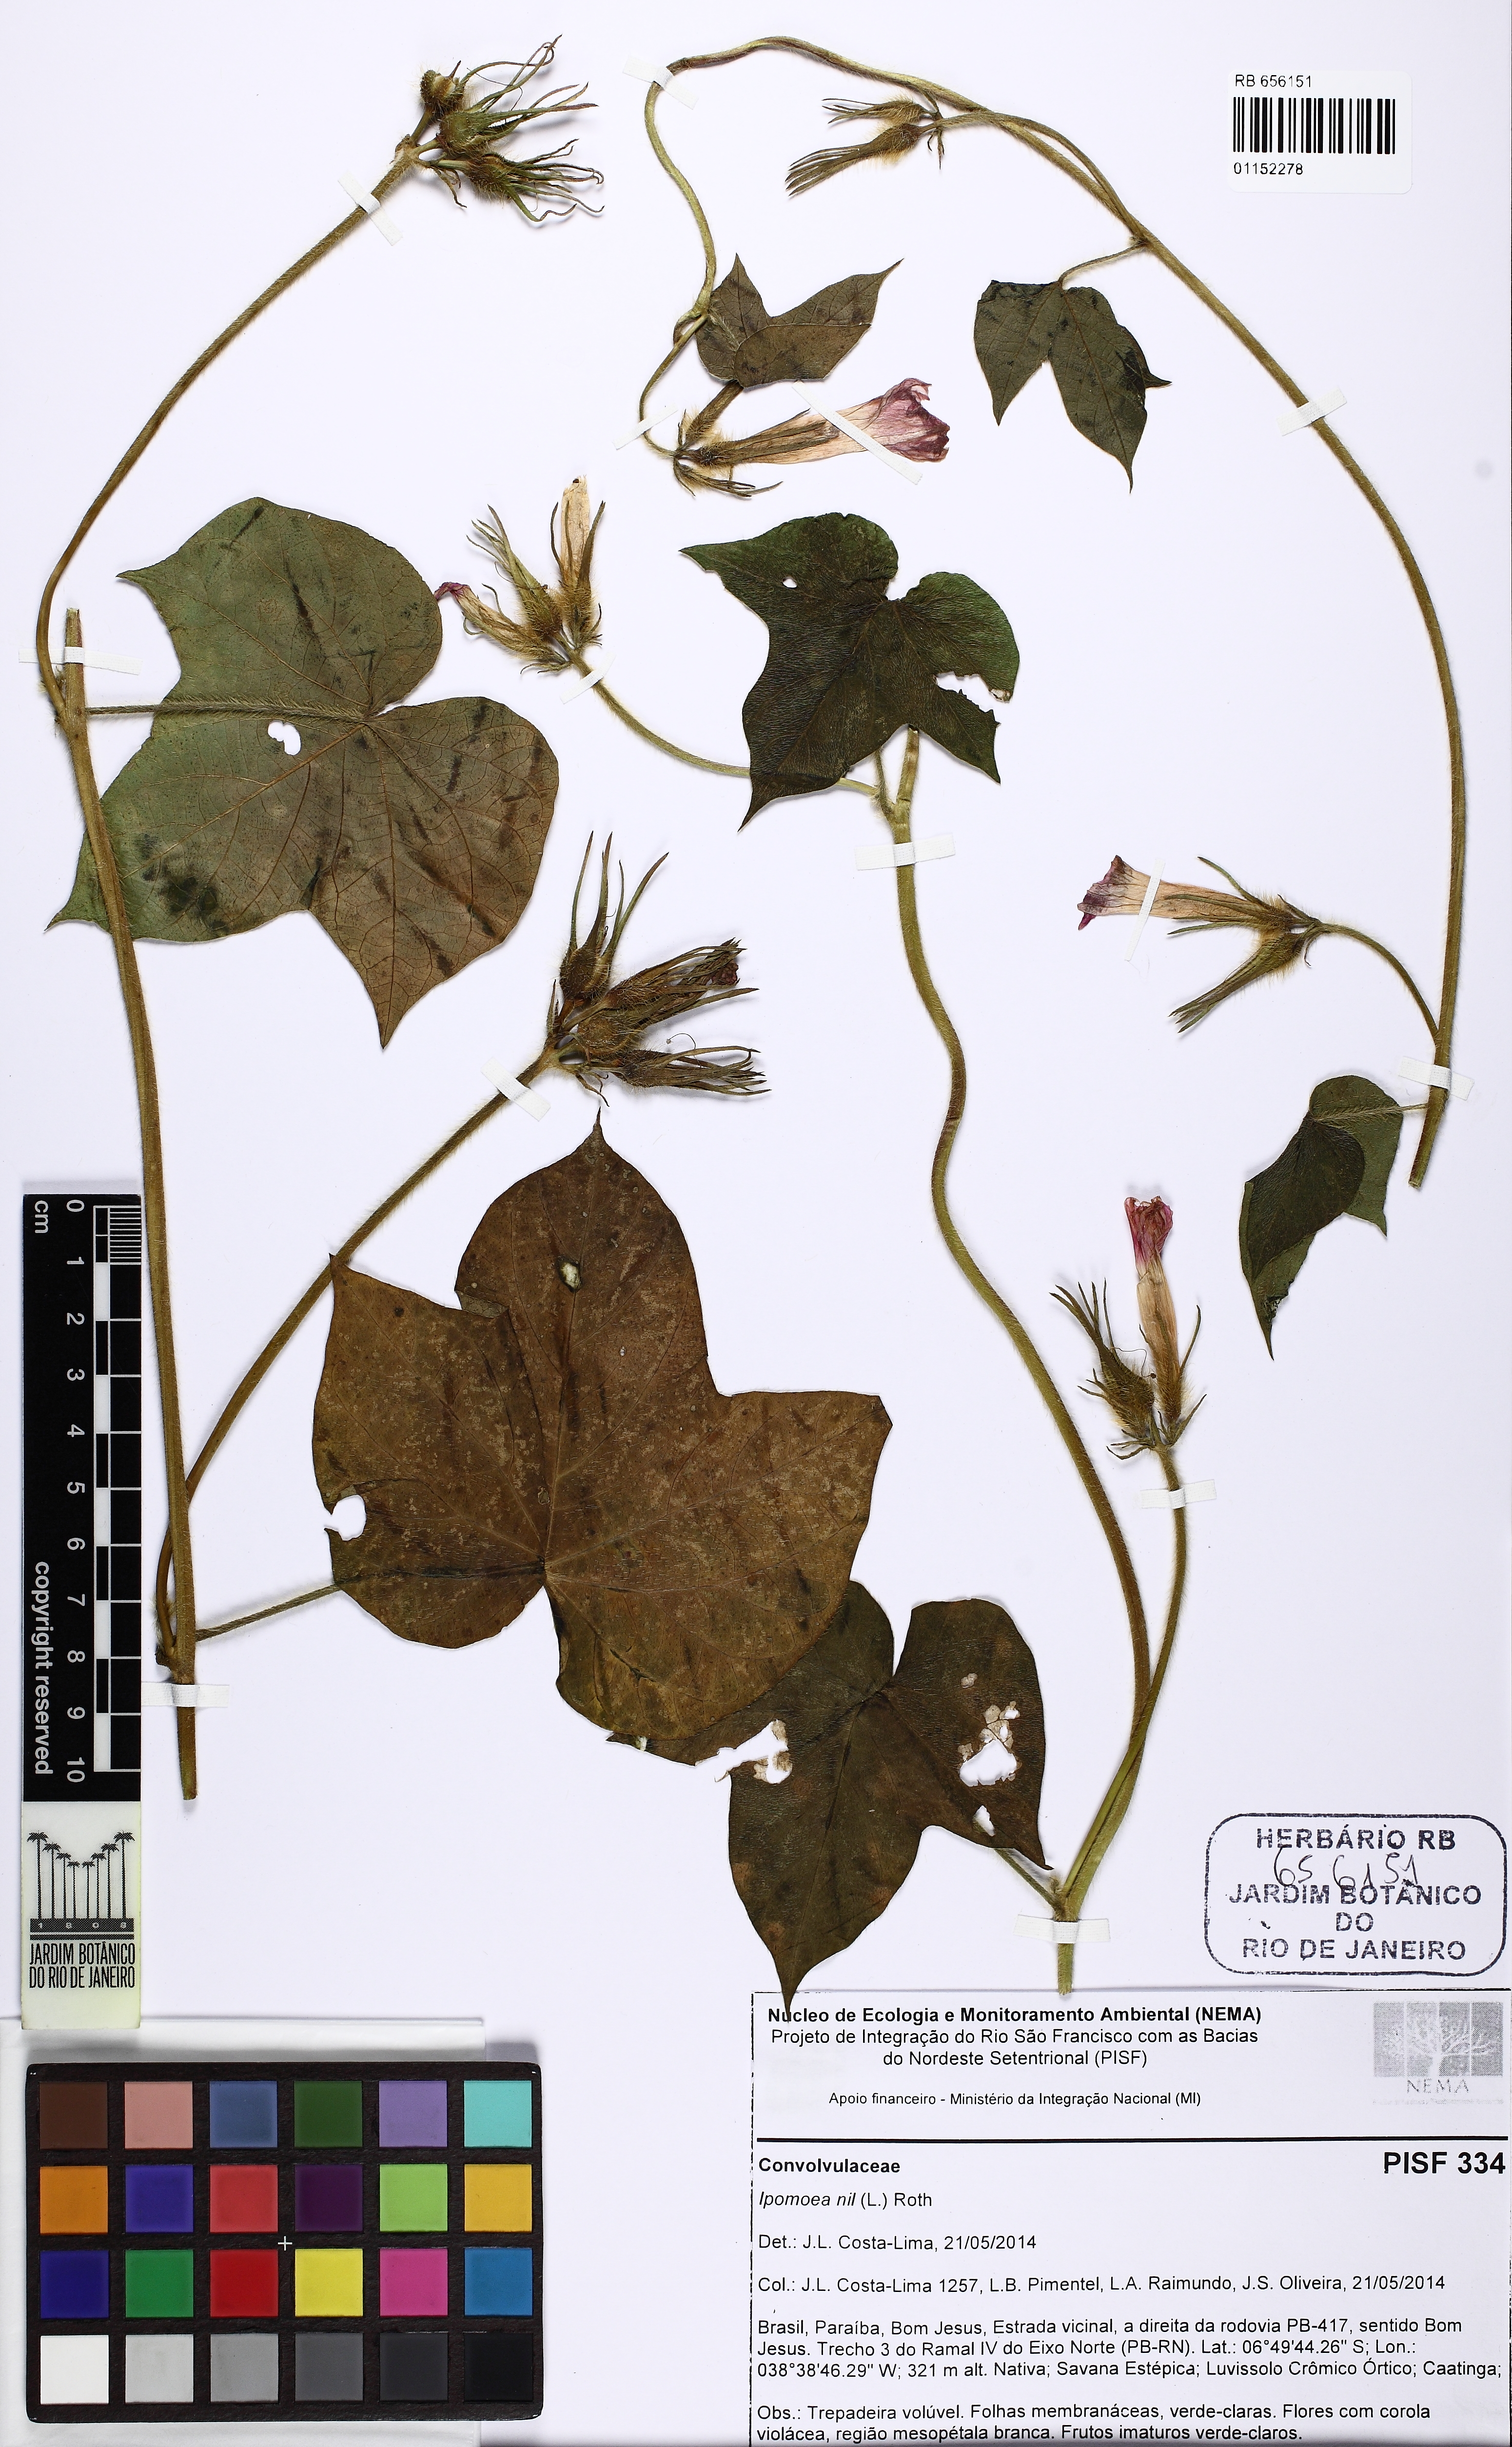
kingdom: Plantae
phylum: Tracheophyta
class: Magnoliopsida
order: Solanales
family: Convolvulaceae
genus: Ipomoea
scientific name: Ipomoea
